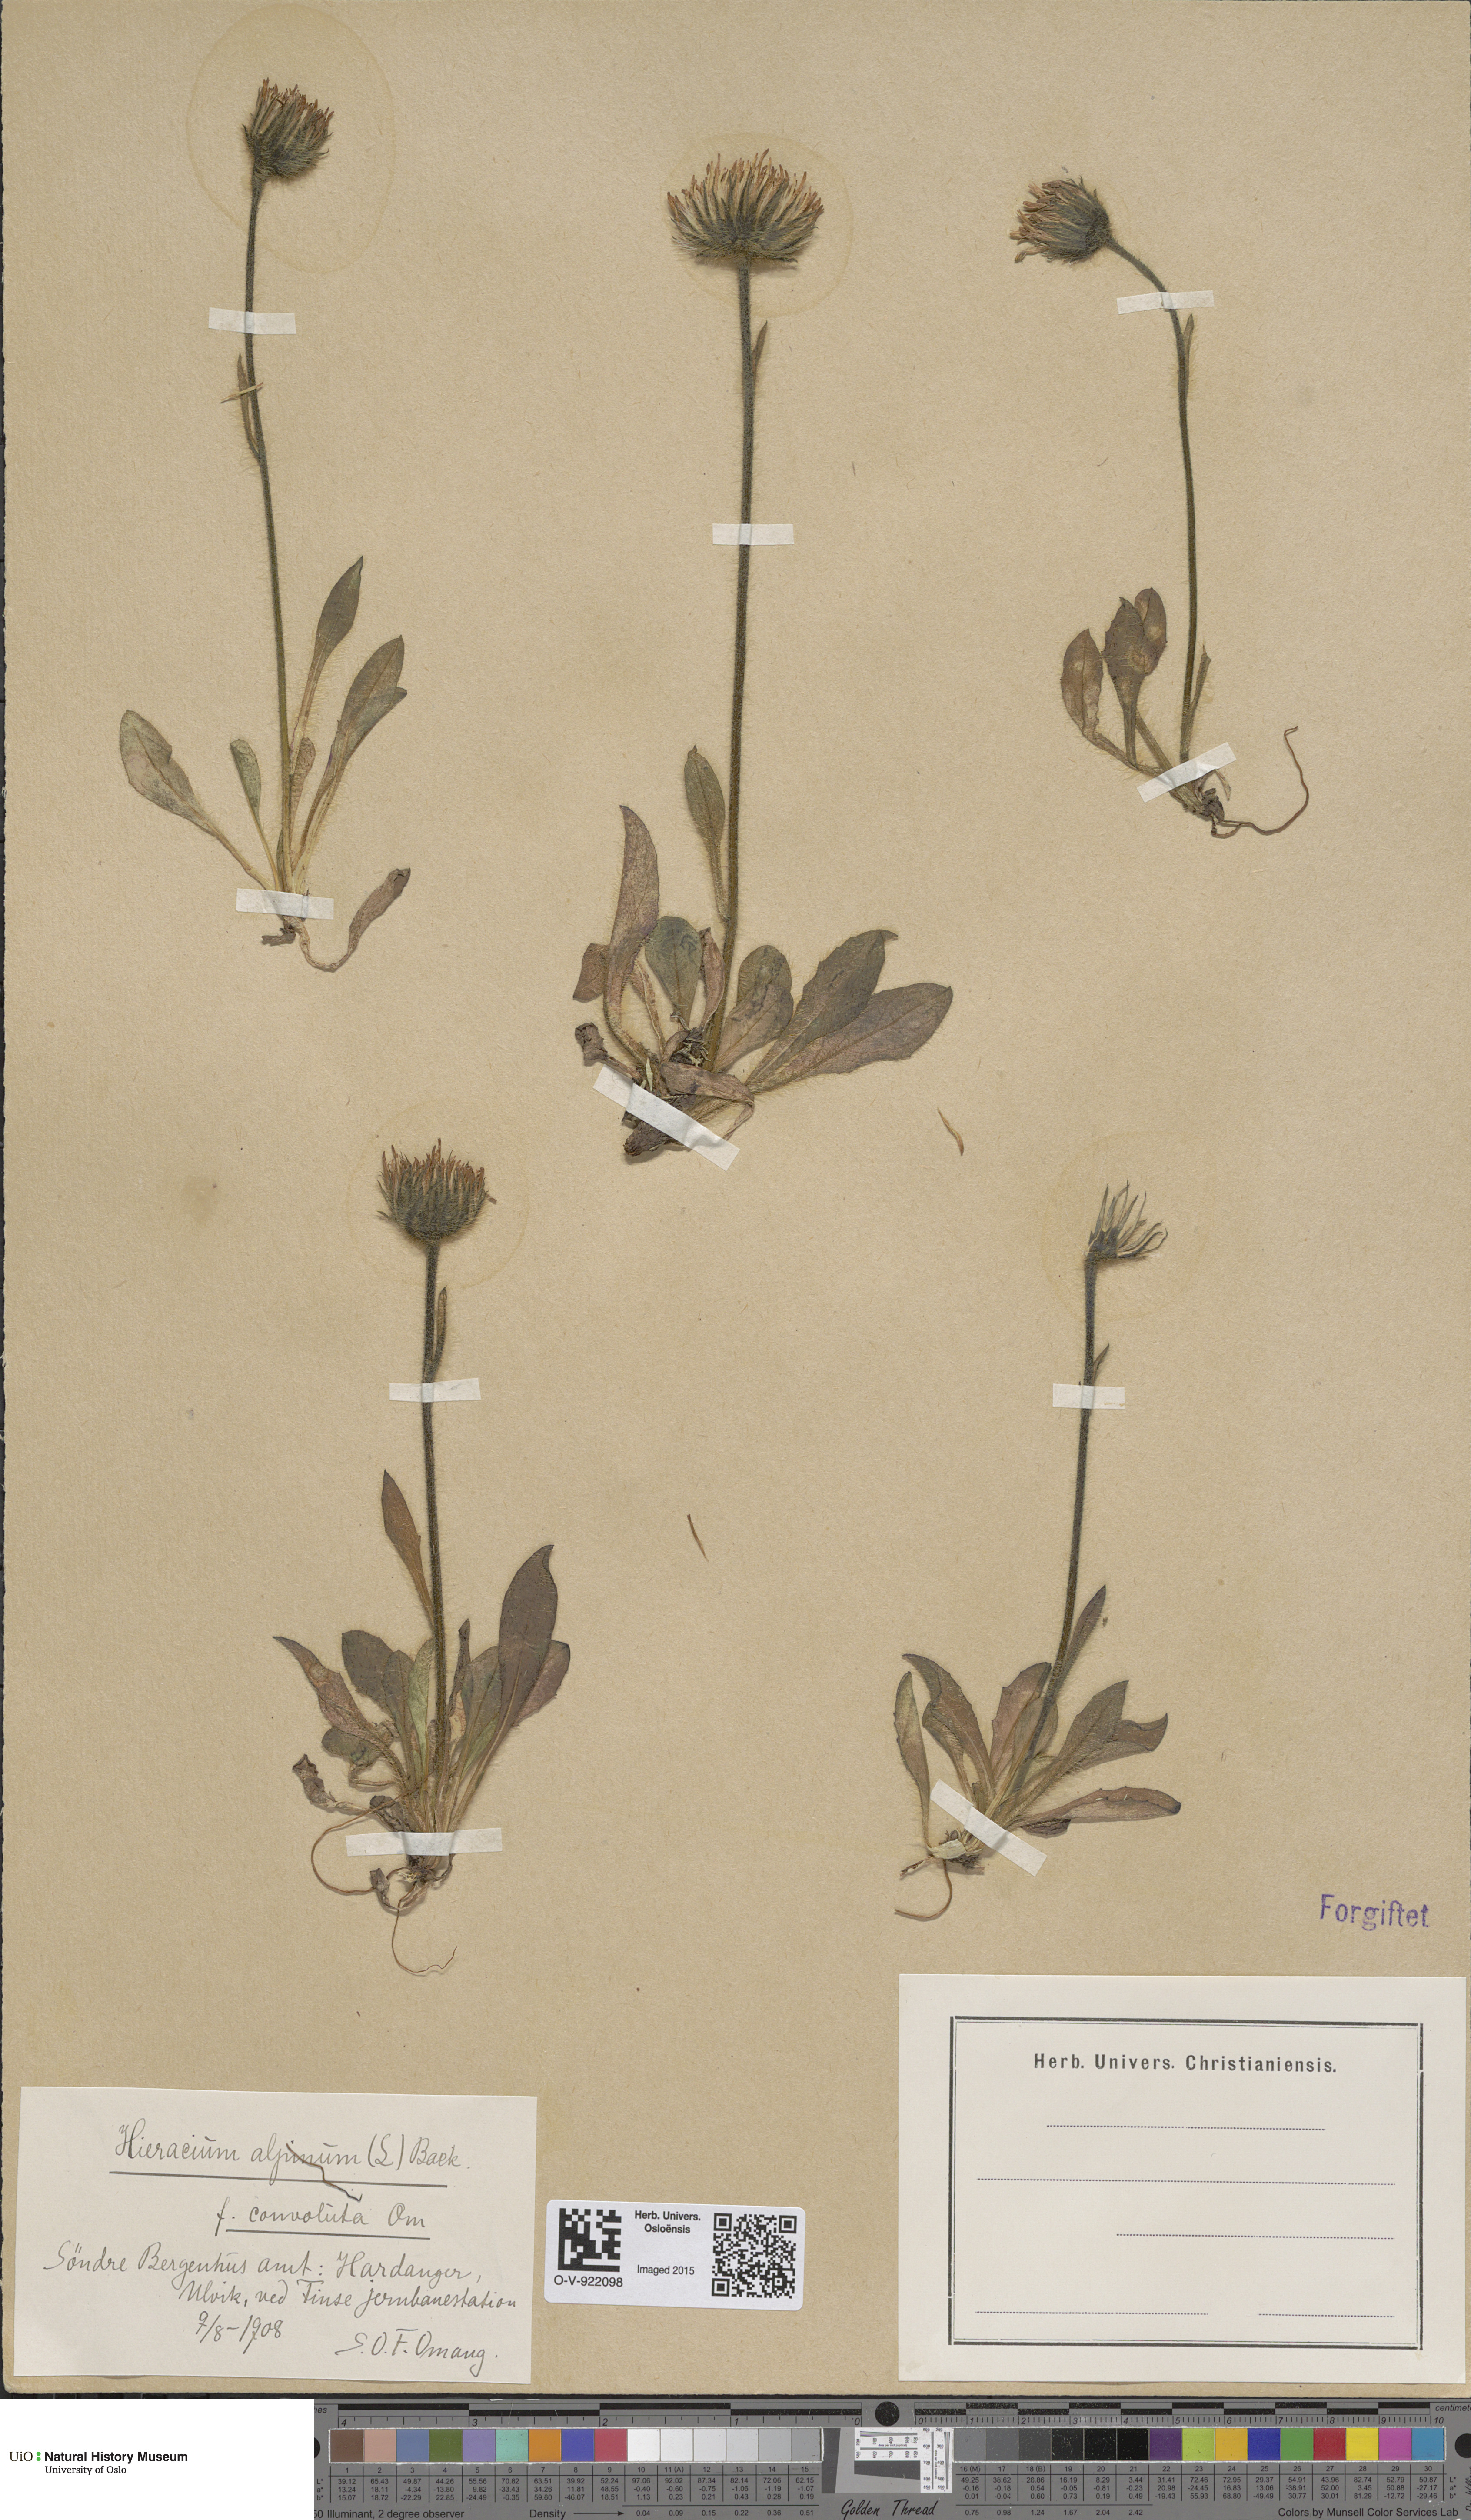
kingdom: Plantae
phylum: Tracheophyta
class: Magnoliopsida
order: Asterales
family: Asteraceae
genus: Hieracium
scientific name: Hieracium alpinum
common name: Alpine hawkweed
